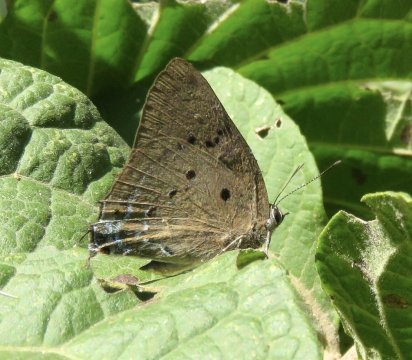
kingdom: Animalia
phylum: Arthropoda
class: Insecta
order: Lepidoptera
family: Lycaenidae
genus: Satyrium
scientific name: Satyrium
